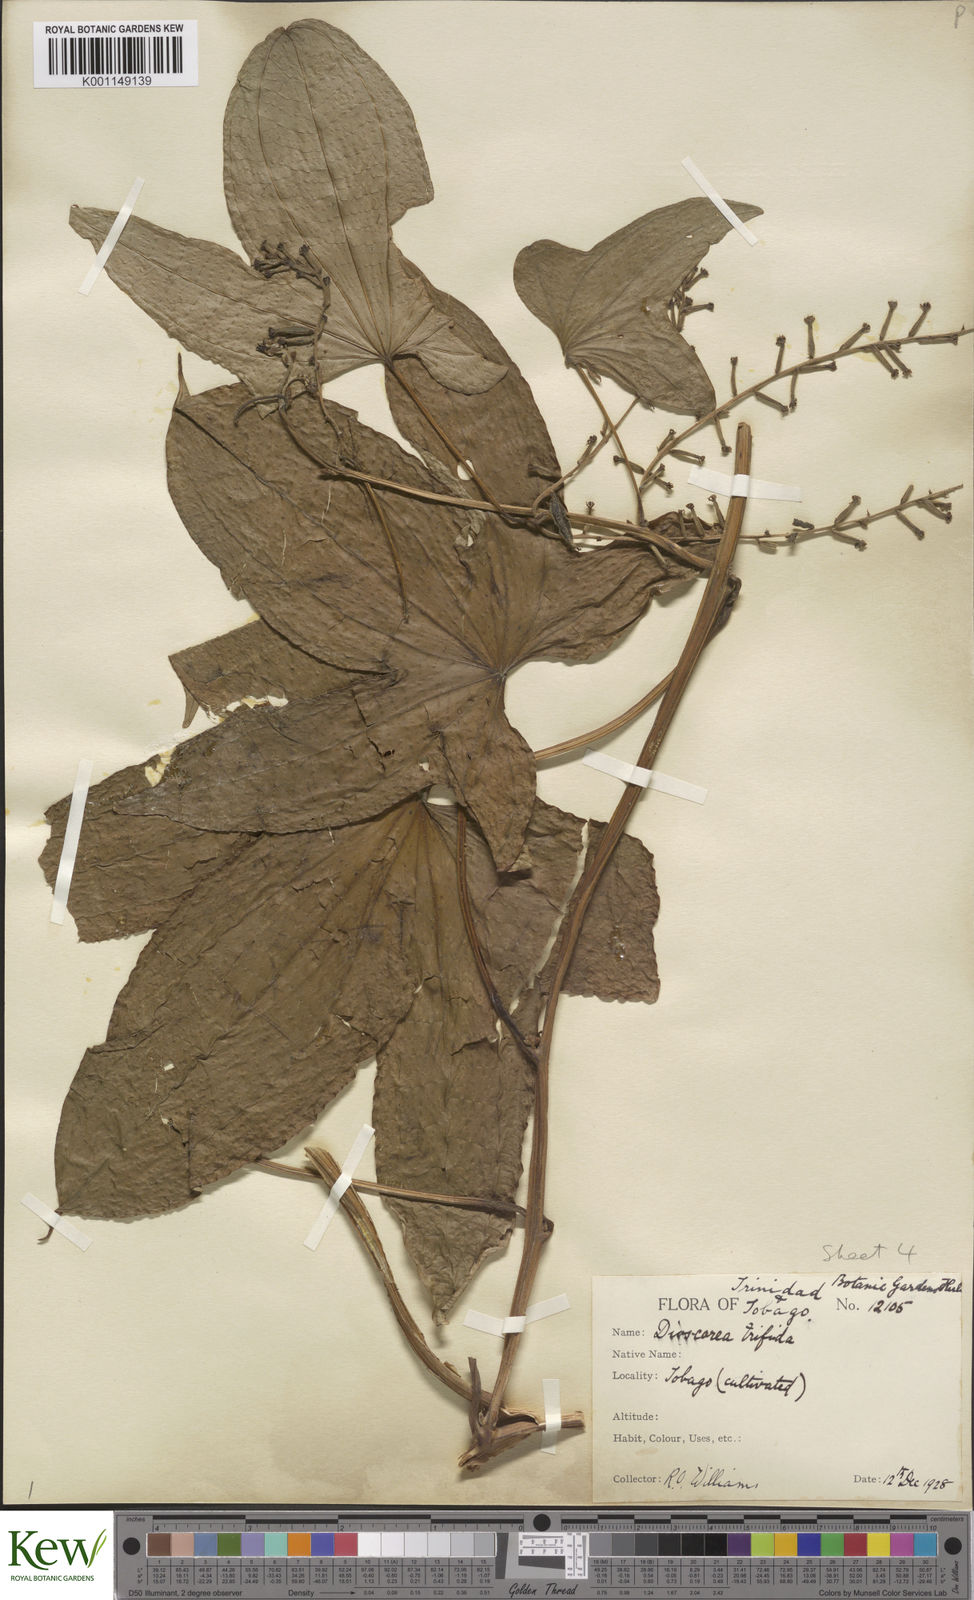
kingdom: Plantae
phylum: Tracheophyta
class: Liliopsida
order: Dioscoreales
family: Dioscoreaceae
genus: Dioscorea
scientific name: Dioscorea trifida
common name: Cush-cush
